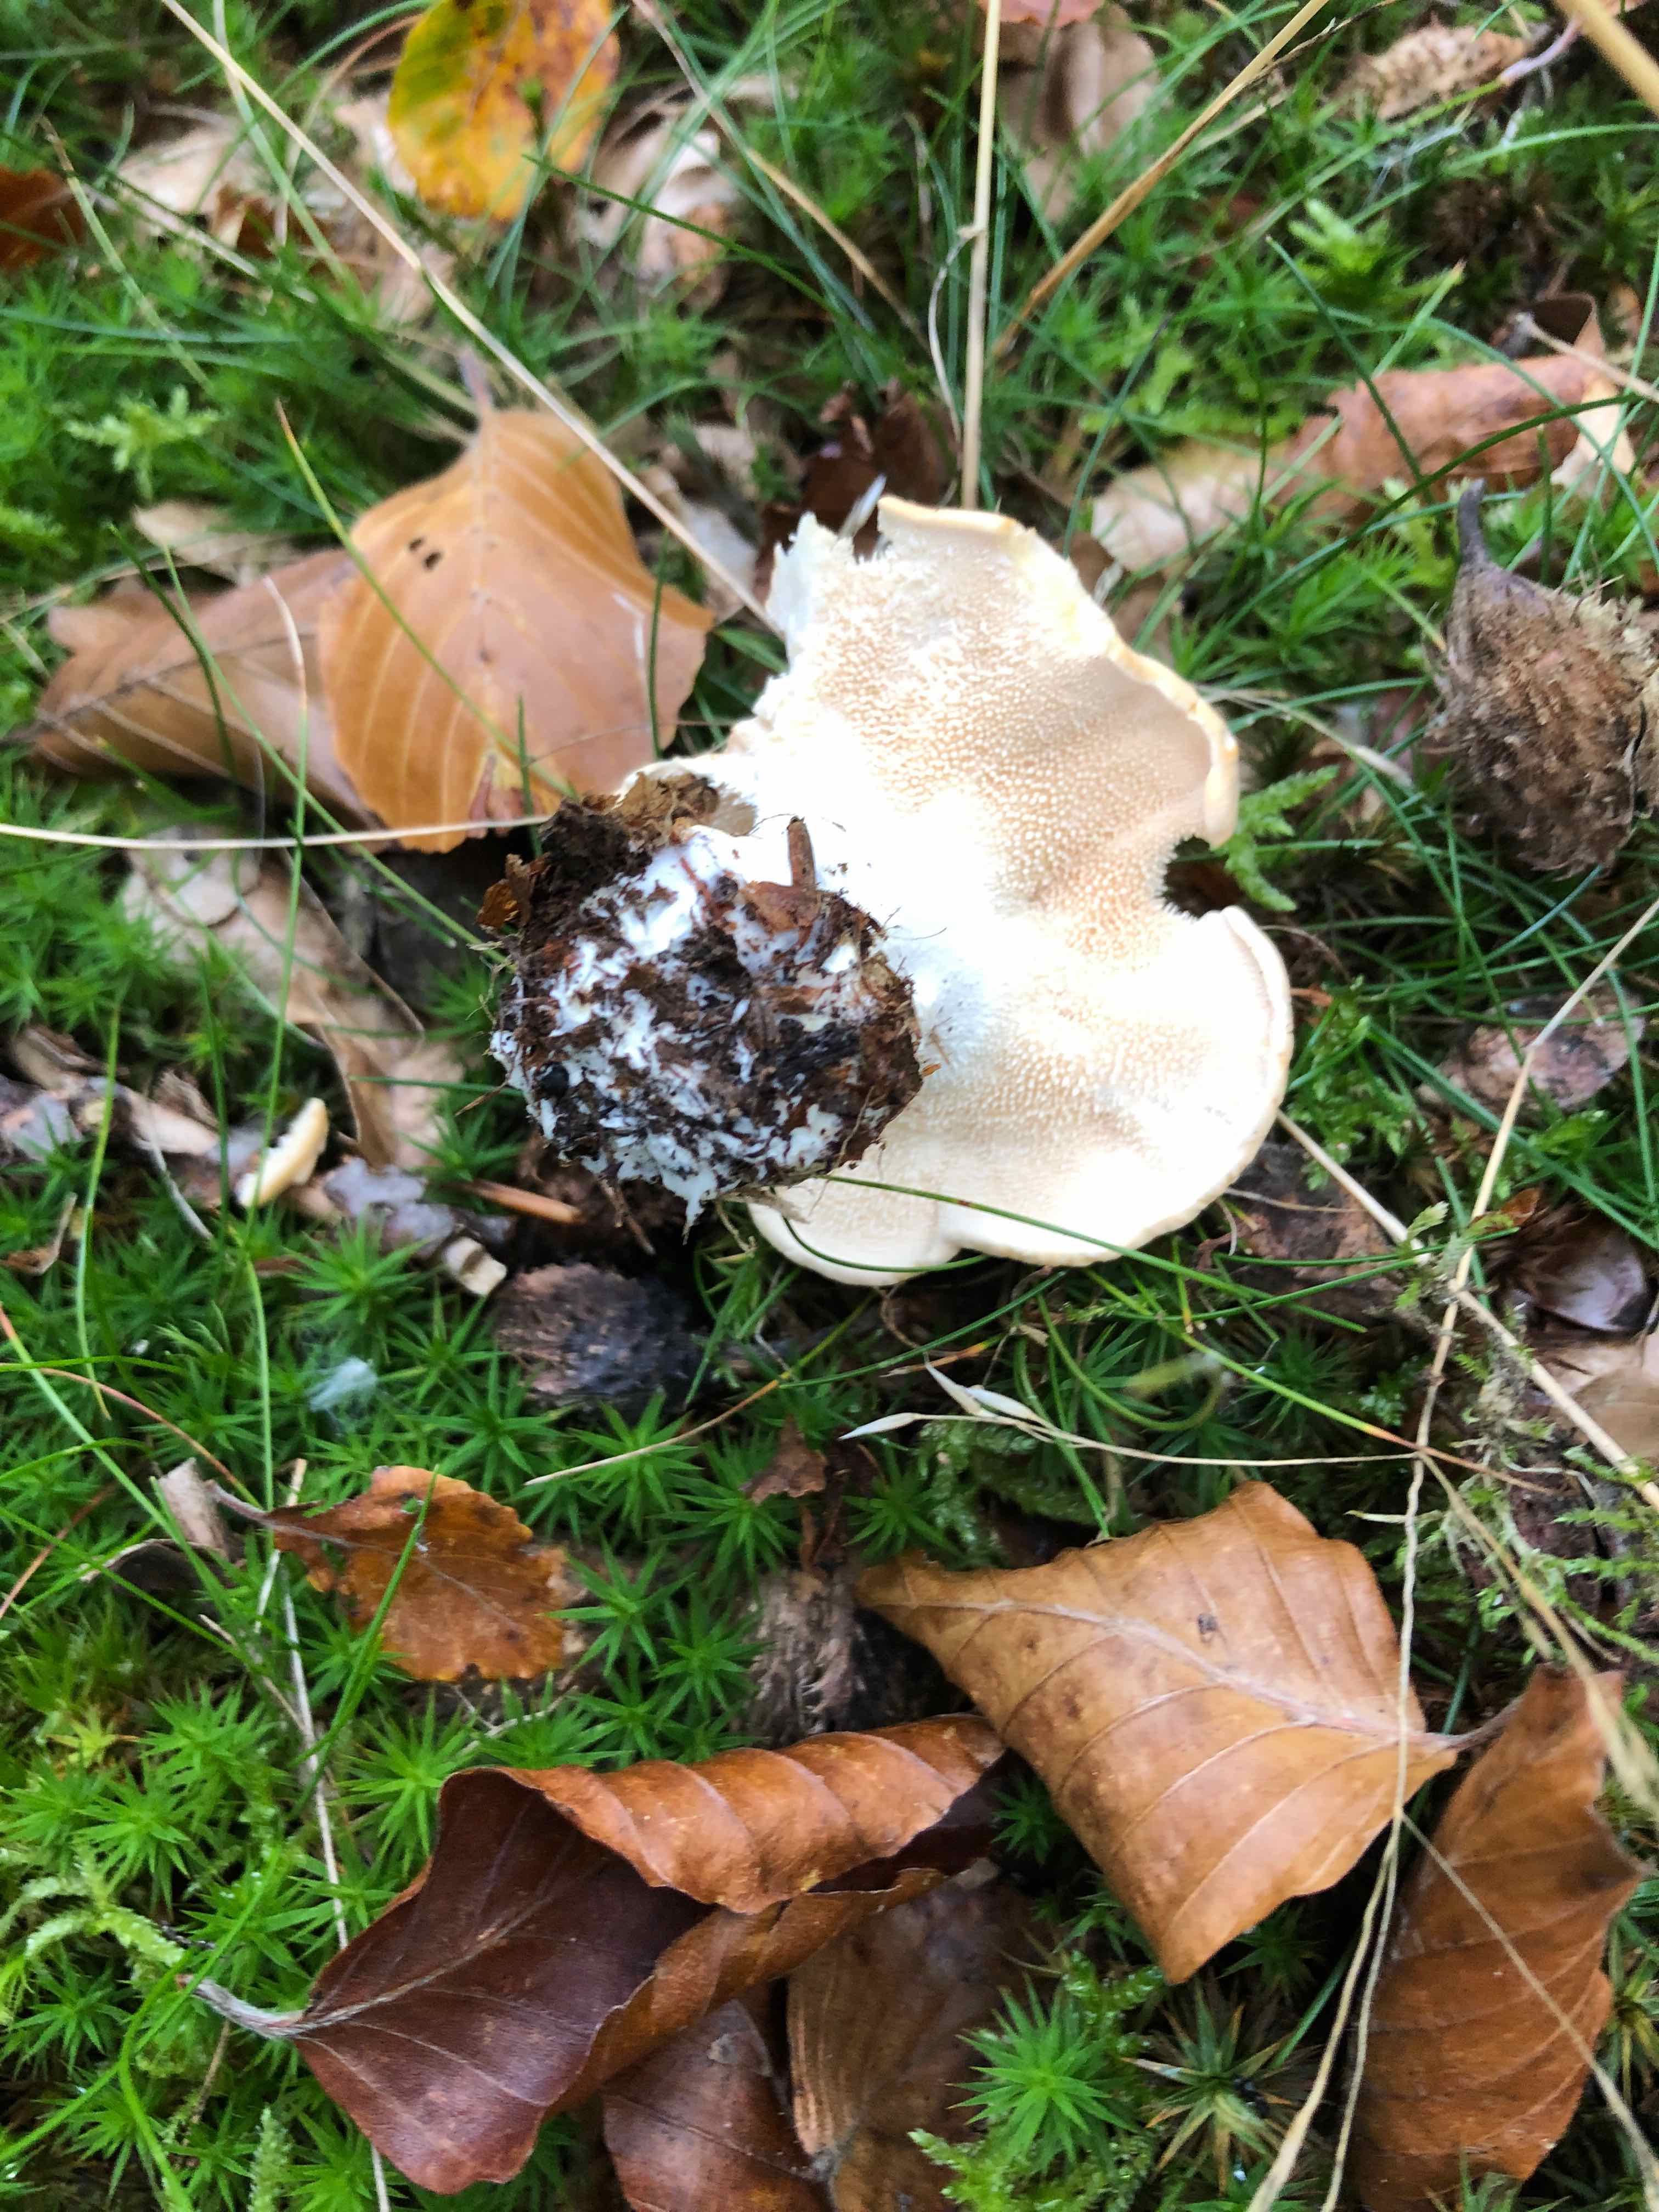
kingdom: Fungi
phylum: Basidiomycota
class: Agaricomycetes
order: Cantharellales
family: Hydnaceae
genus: Hydnum
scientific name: Hydnum repandum
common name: almindelig pigsvamp
